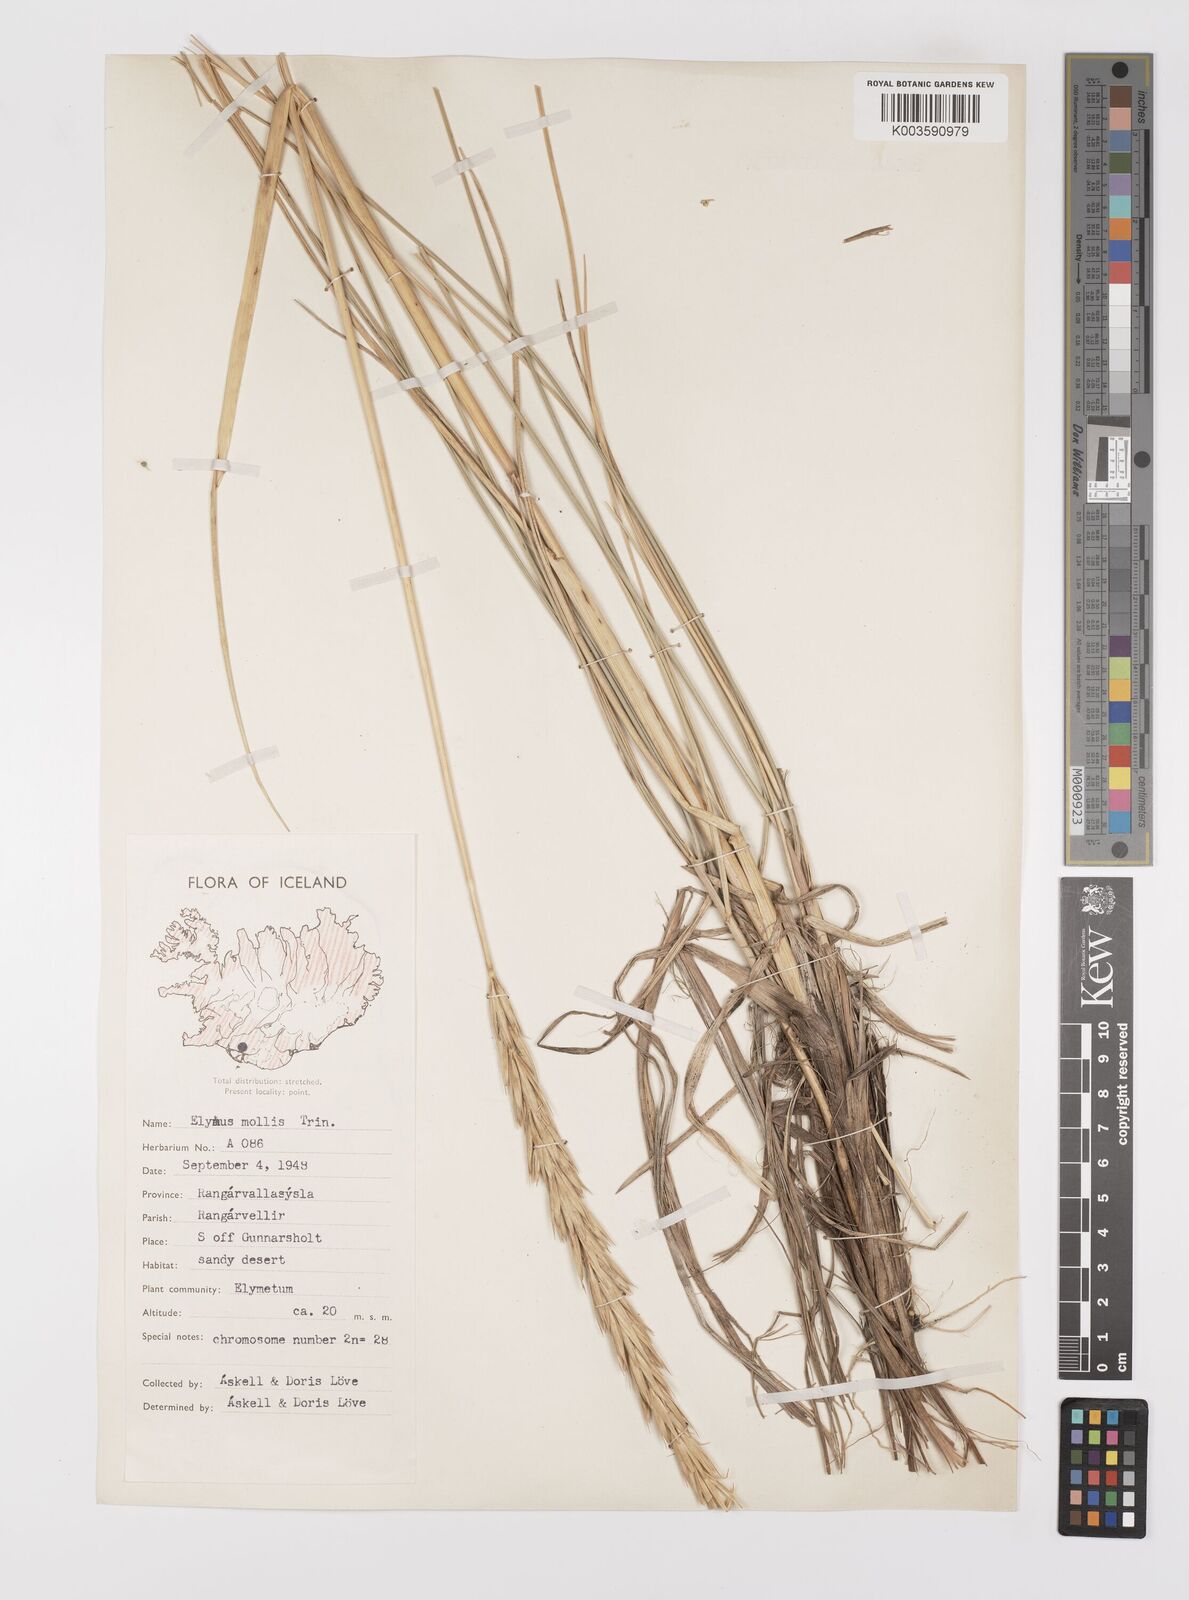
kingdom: Plantae
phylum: Tracheophyta
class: Liliopsida
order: Poales
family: Poaceae
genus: Leymus
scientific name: Leymus arenarius
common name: Lyme-grass
